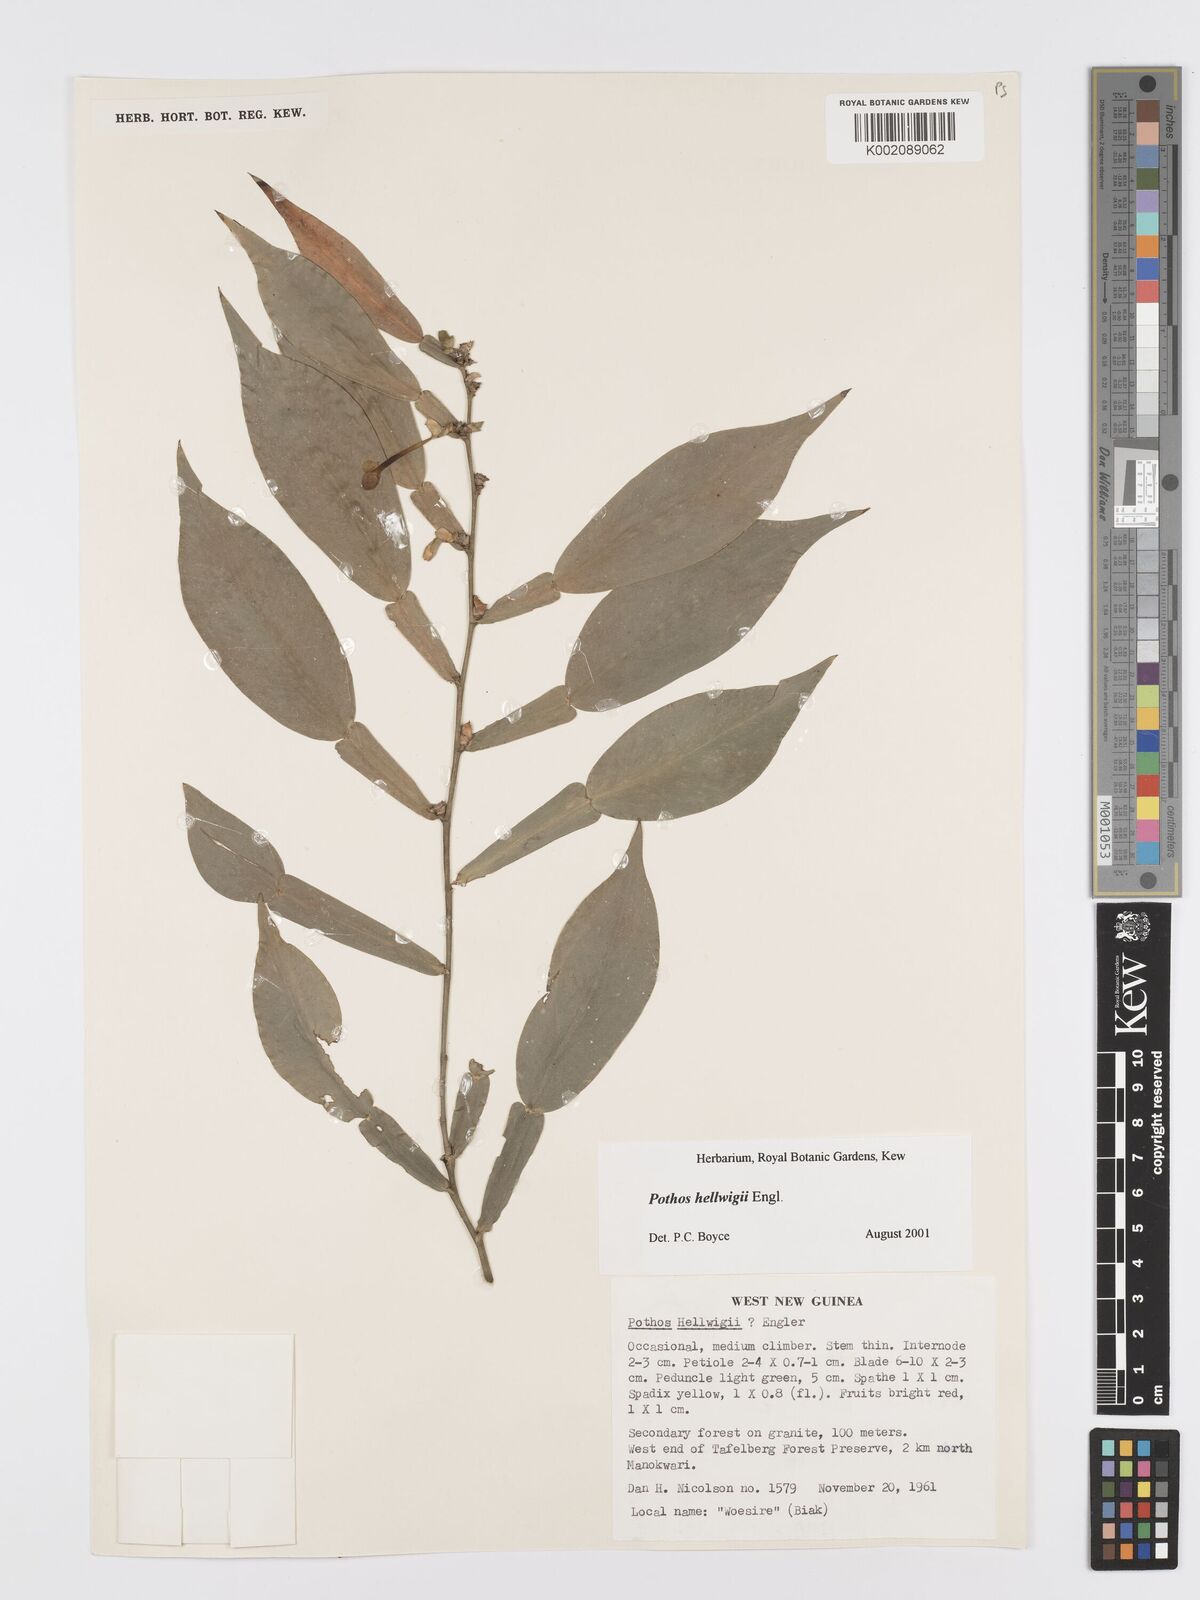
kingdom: Plantae
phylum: Tracheophyta
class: Liliopsida
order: Alismatales
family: Araceae
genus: Pothos
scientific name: Pothos hellwigii
